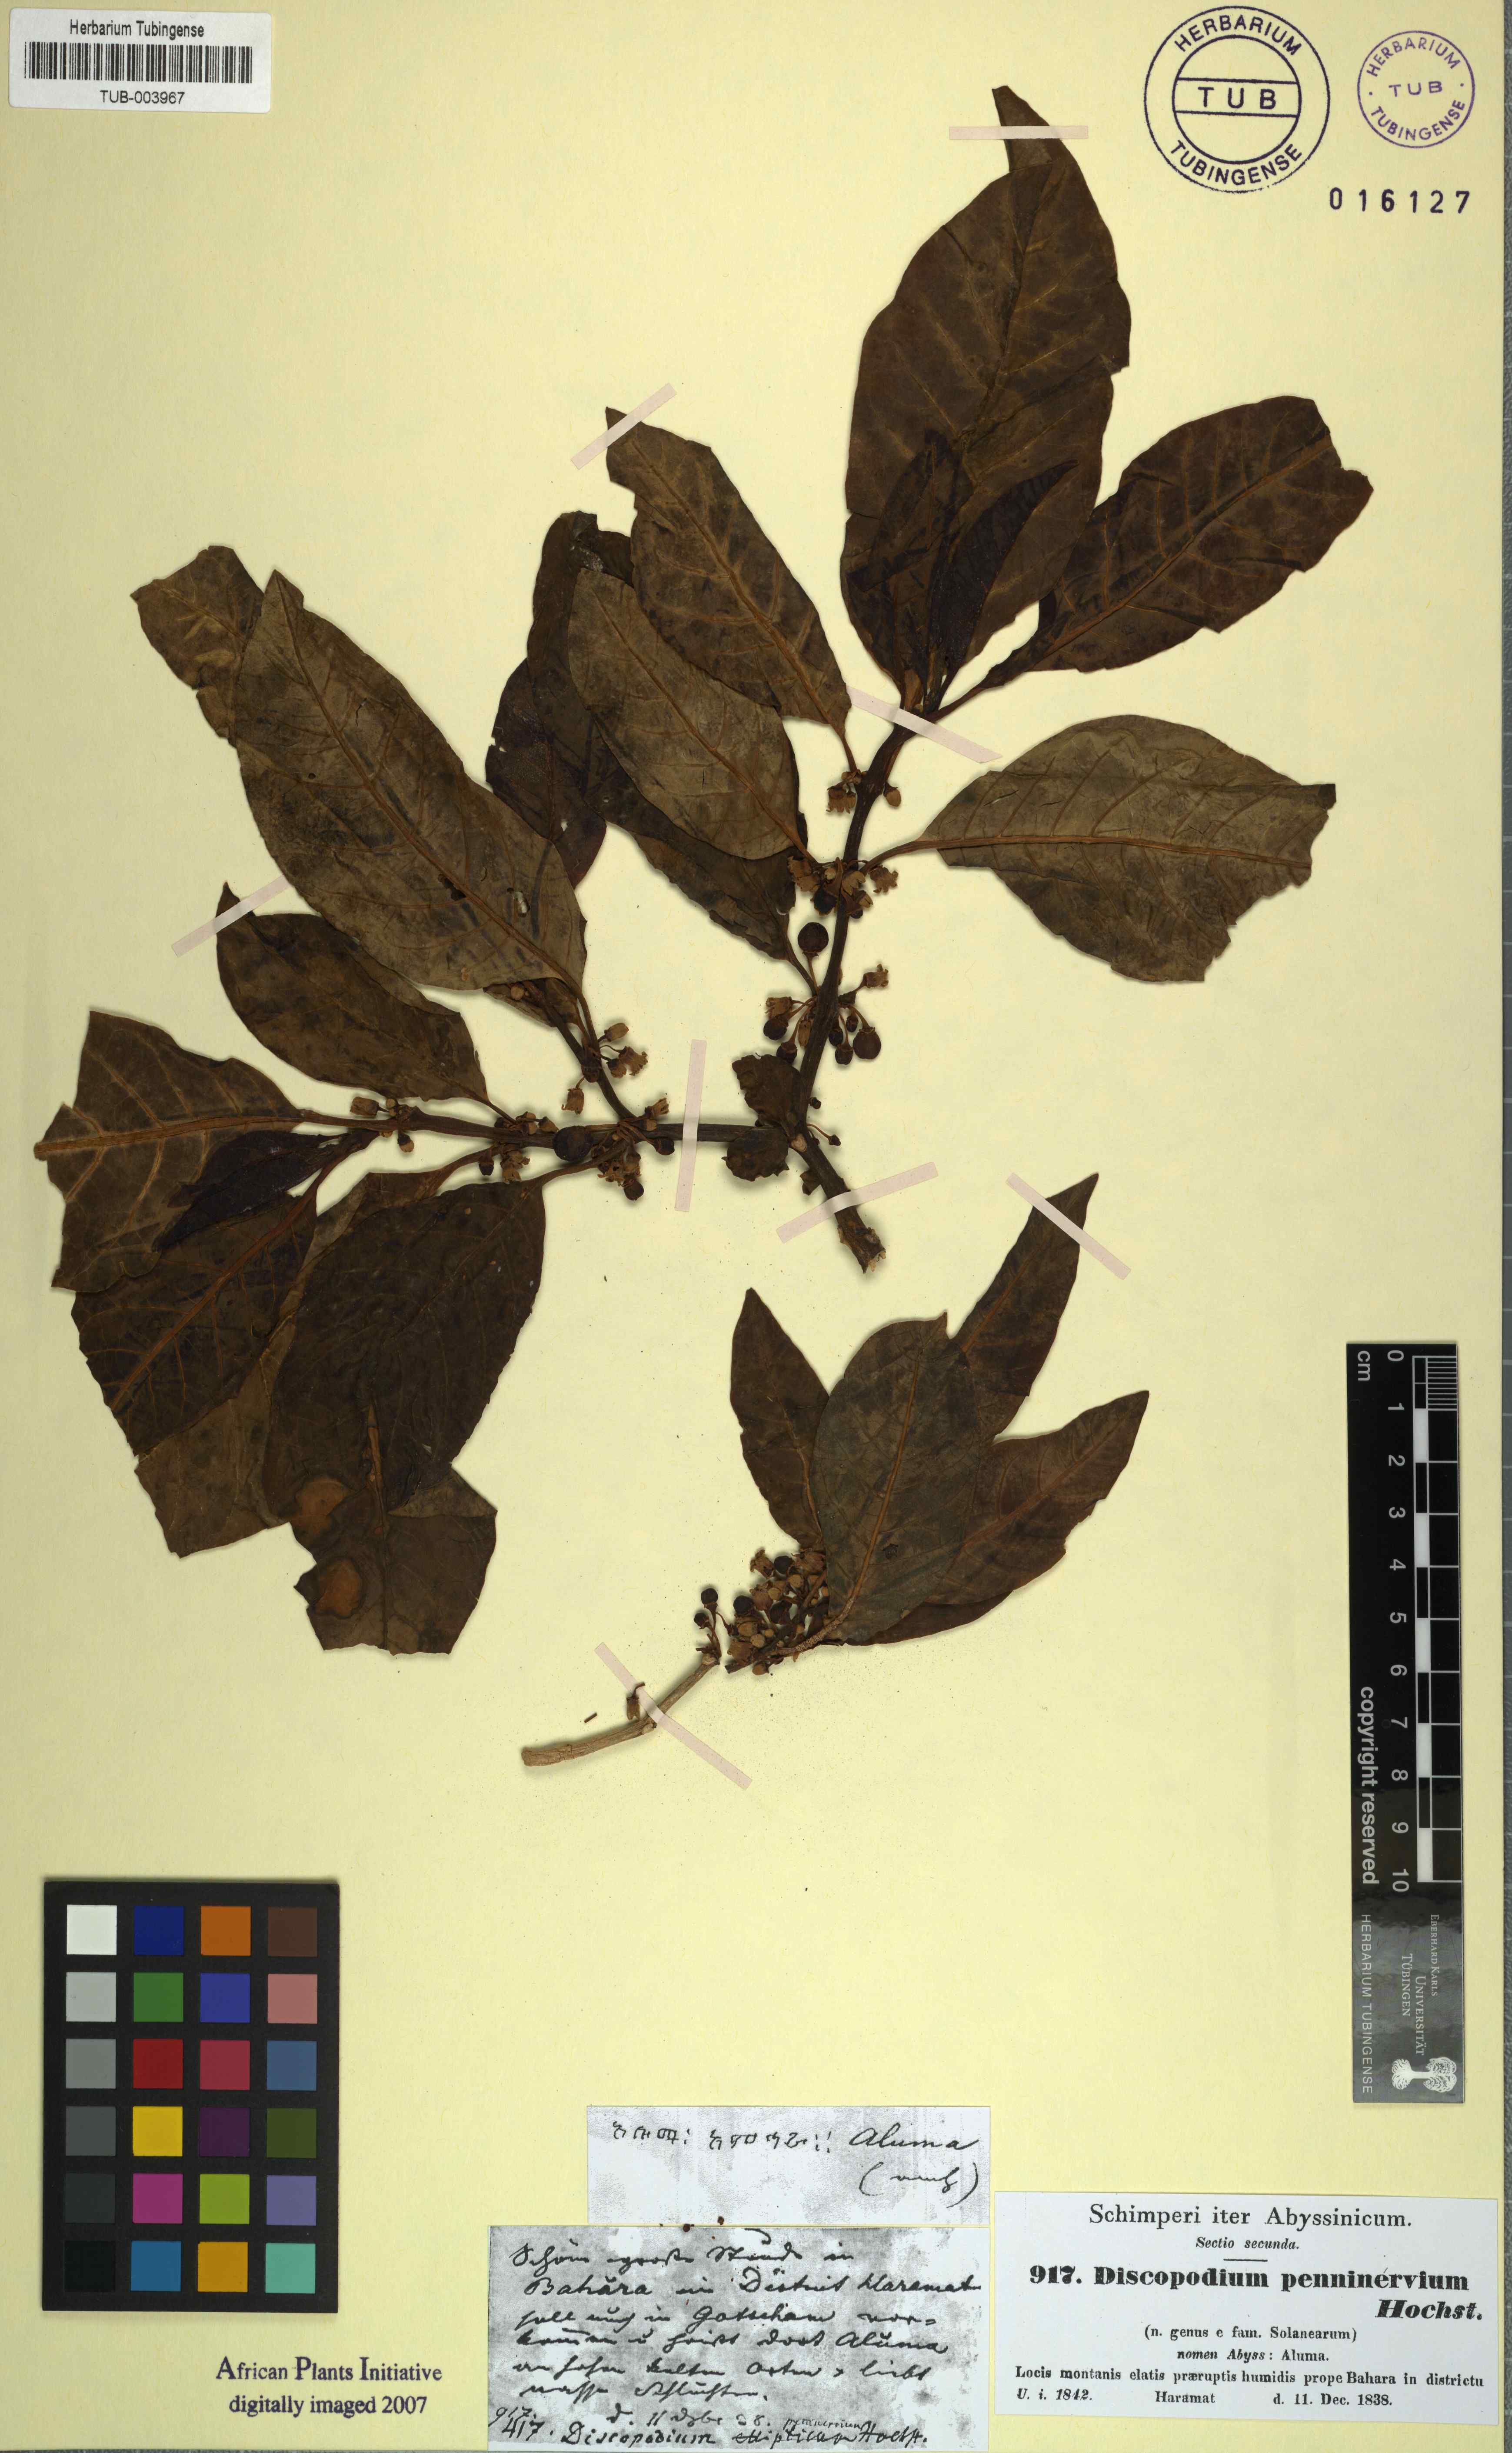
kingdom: Plantae
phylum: Tracheophyta
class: Magnoliopsida
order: Solanales
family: Solanaceae
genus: Discopodium
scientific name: Discopodium penninervium
